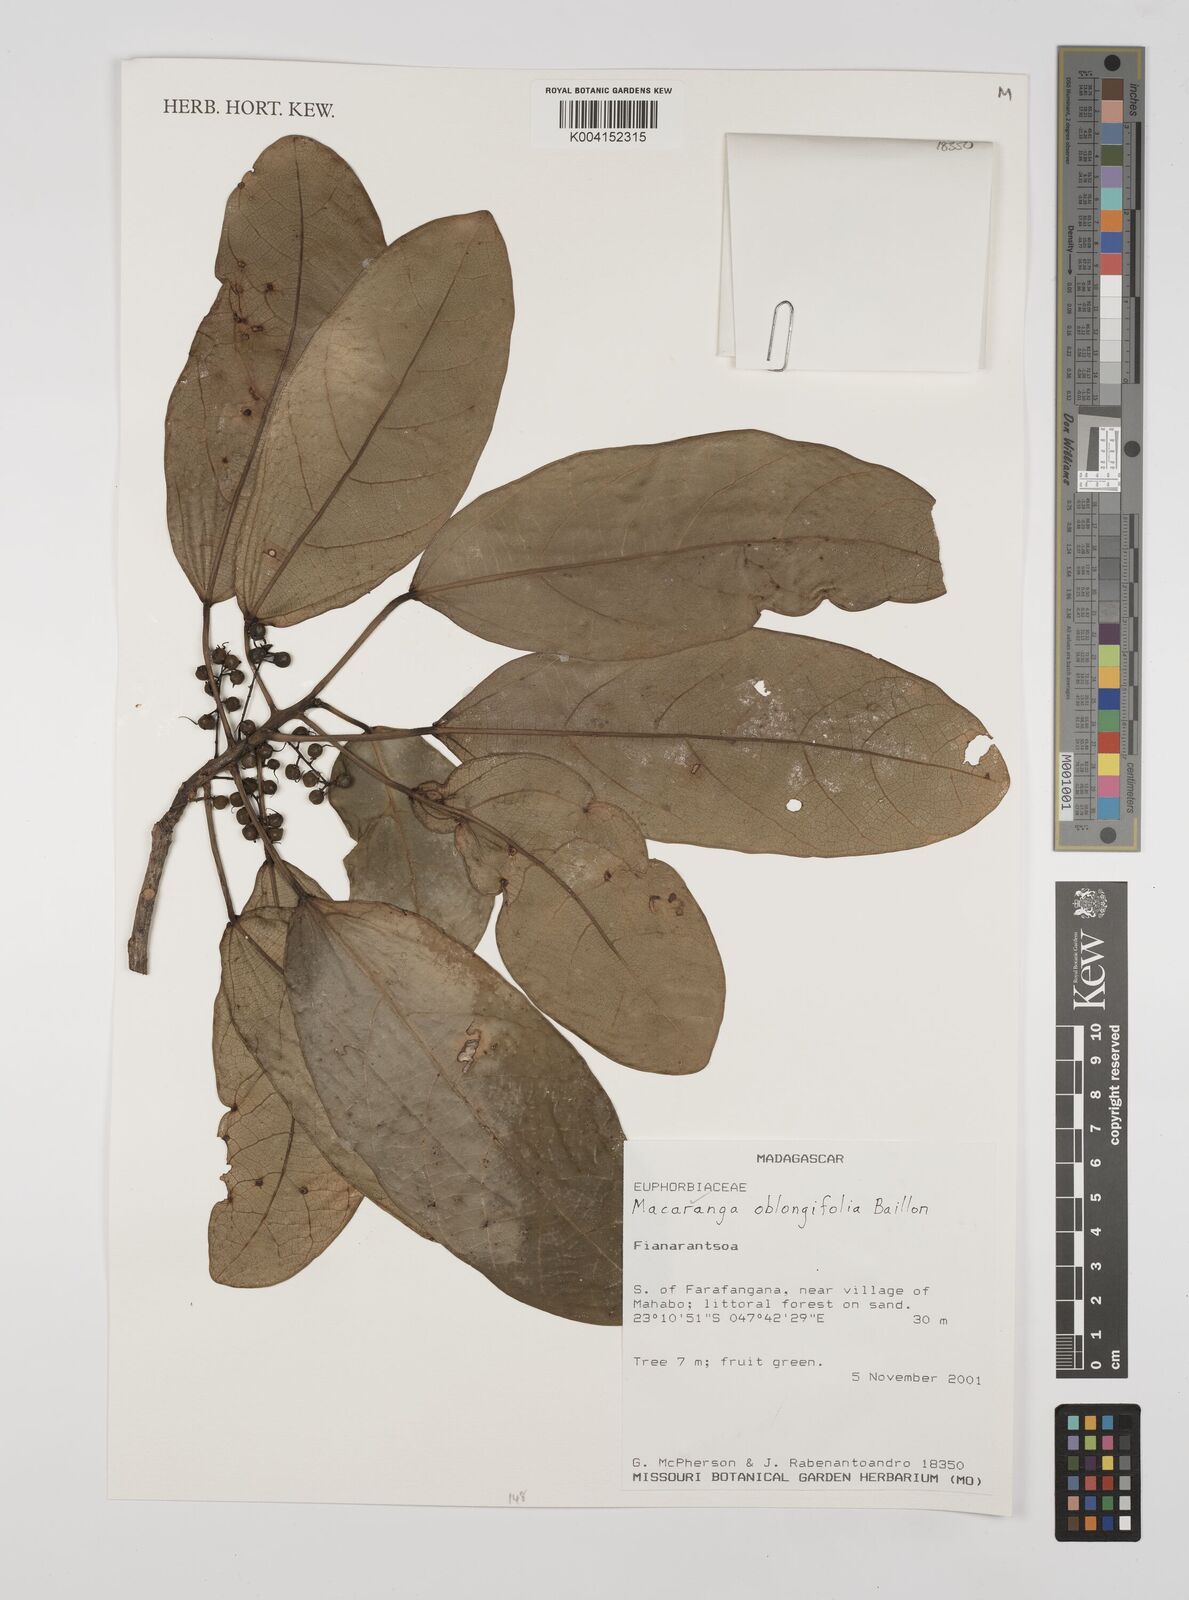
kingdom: Plantae
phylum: Tracheophyta
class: Magnoliopsida
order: Malpighiales
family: Euphorbiaceae
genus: Macaranga
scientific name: Macaranga oblongifolia
